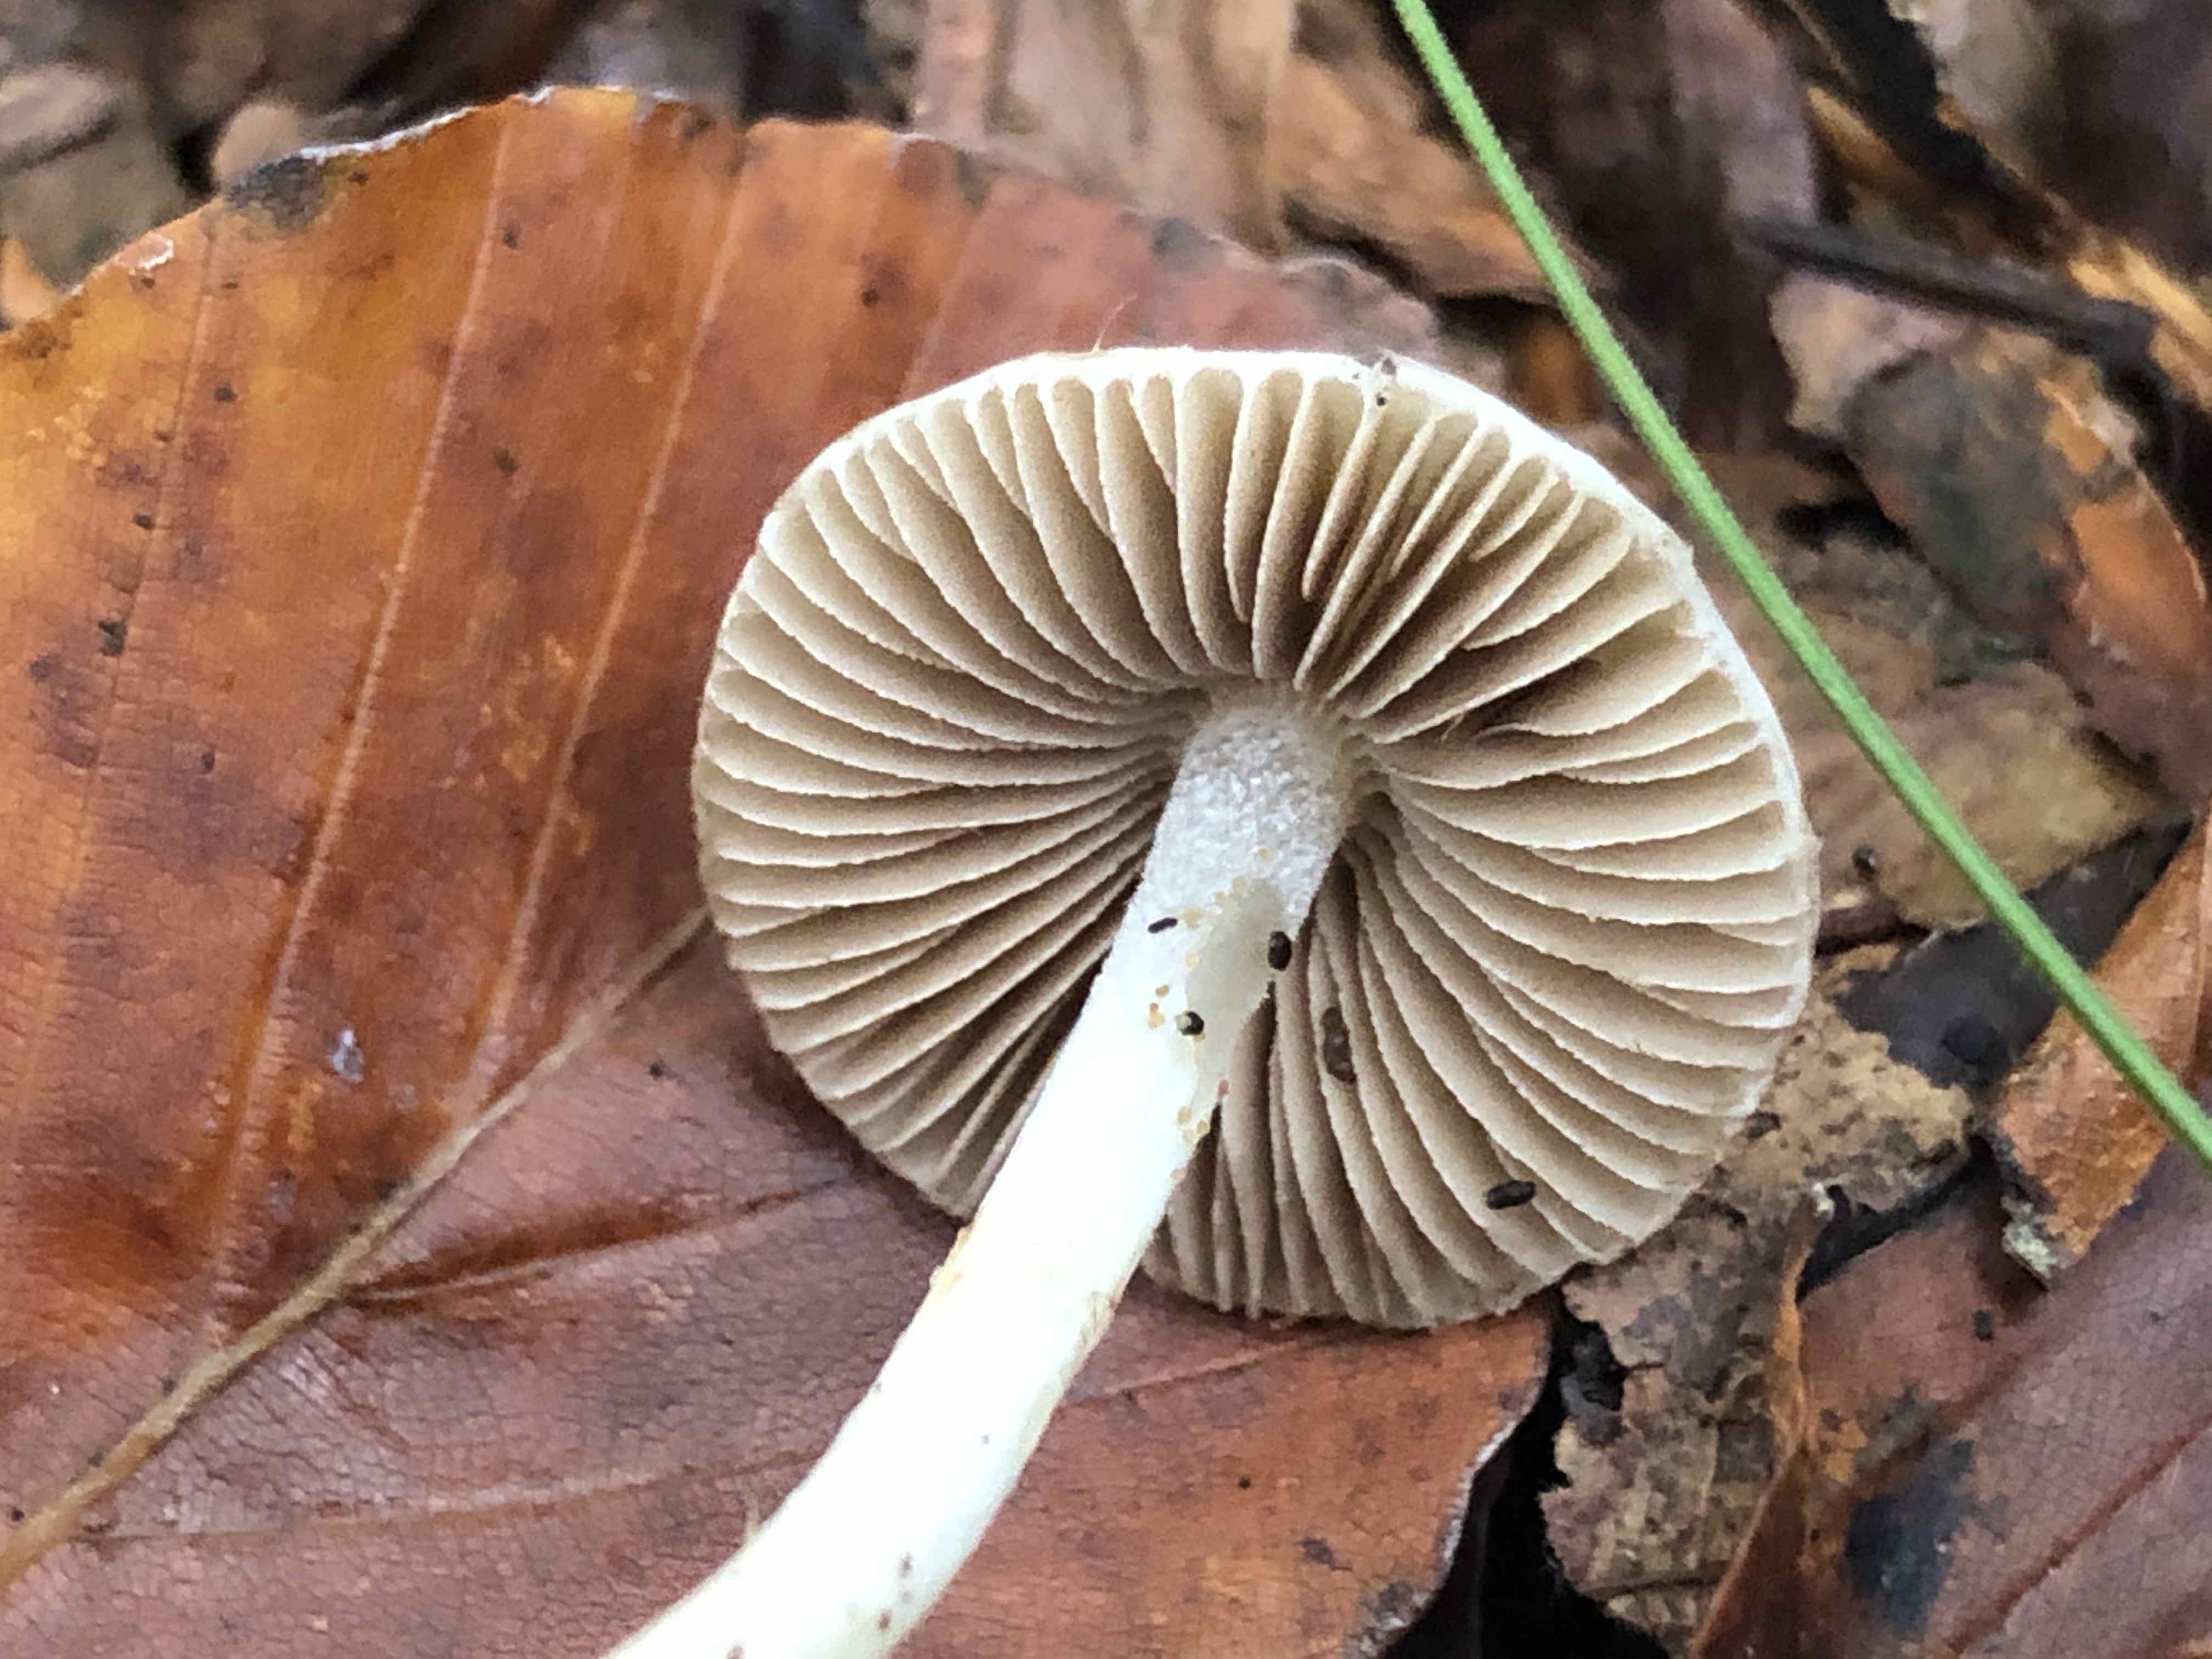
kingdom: Fungi
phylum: Basidiomycota
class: Agaricomycetes
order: Agaricales
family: Inocybaceae
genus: Inocybe
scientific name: Inocybe
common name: almindelig trævlhat
